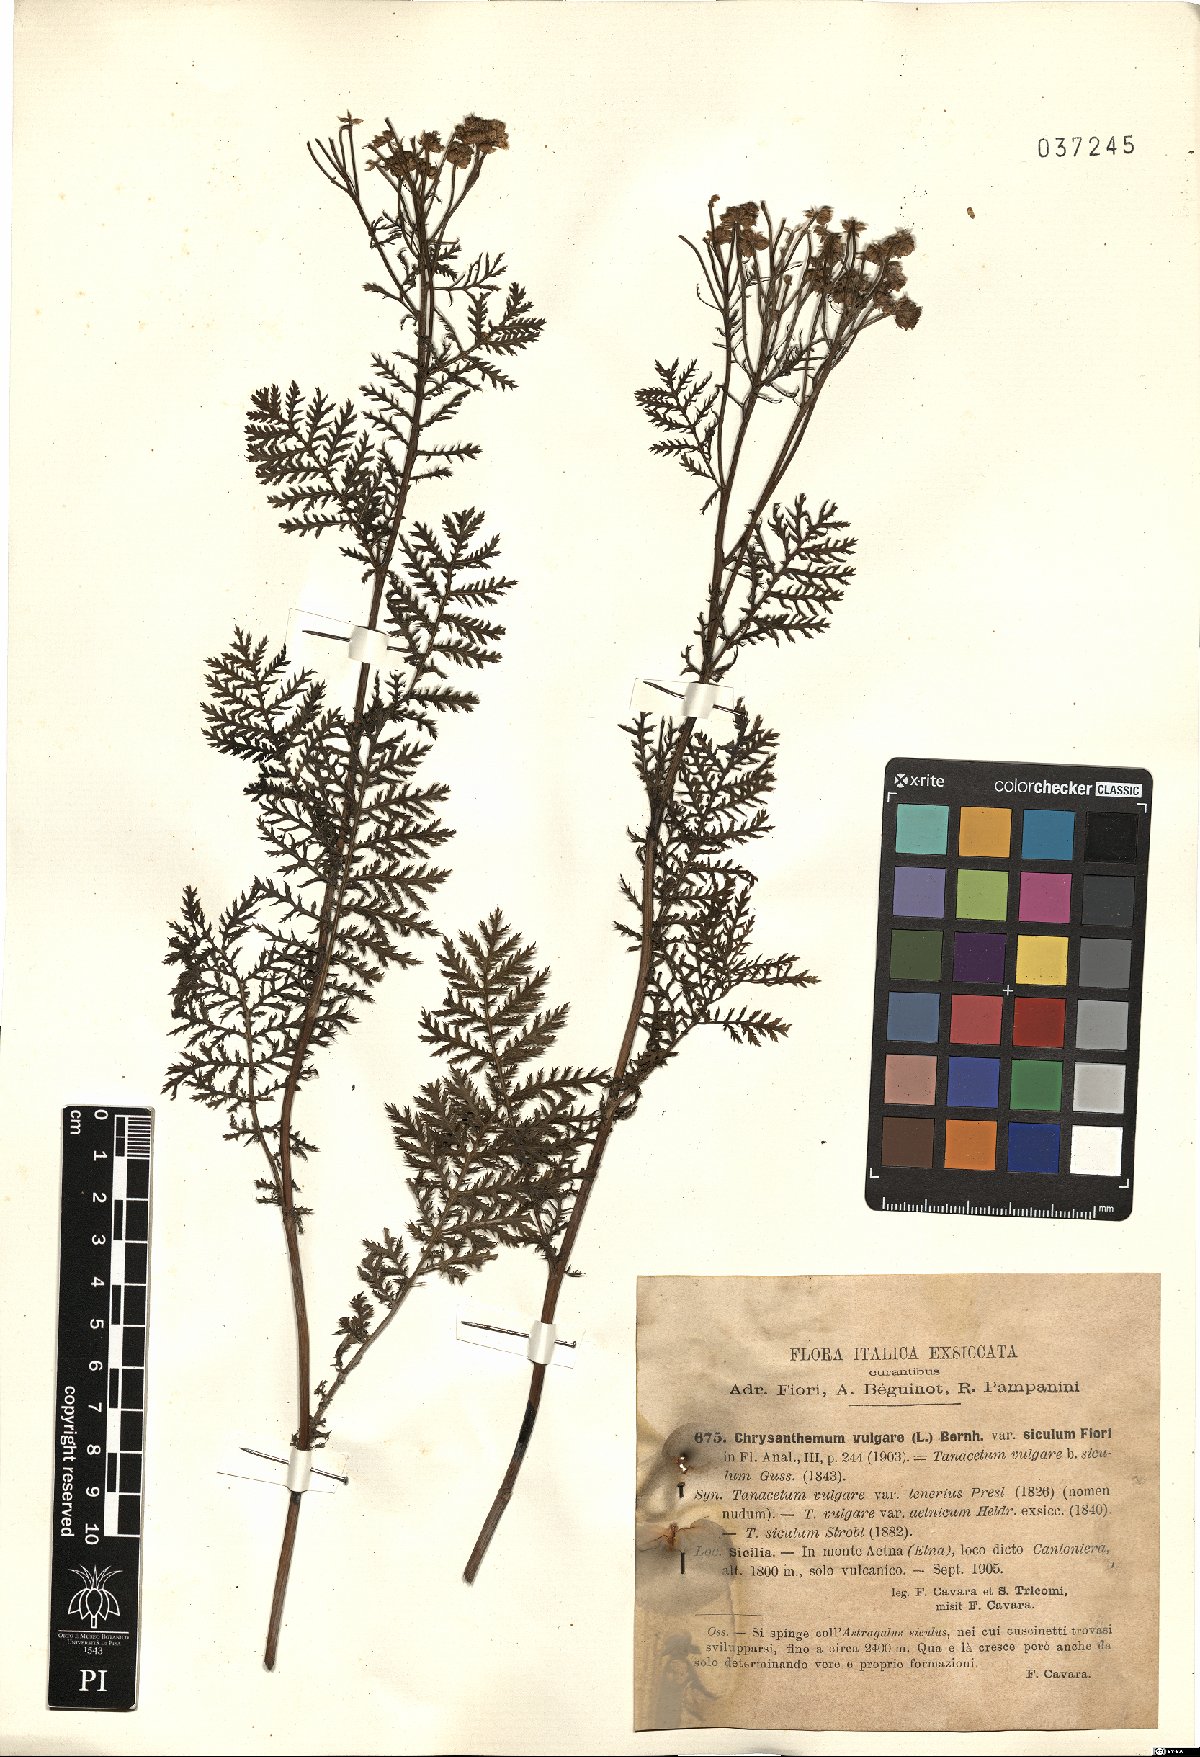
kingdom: Plantae
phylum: Tracheophyta
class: Magnoliopsida
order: Asterales
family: Asteraceae
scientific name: Asteraceae
